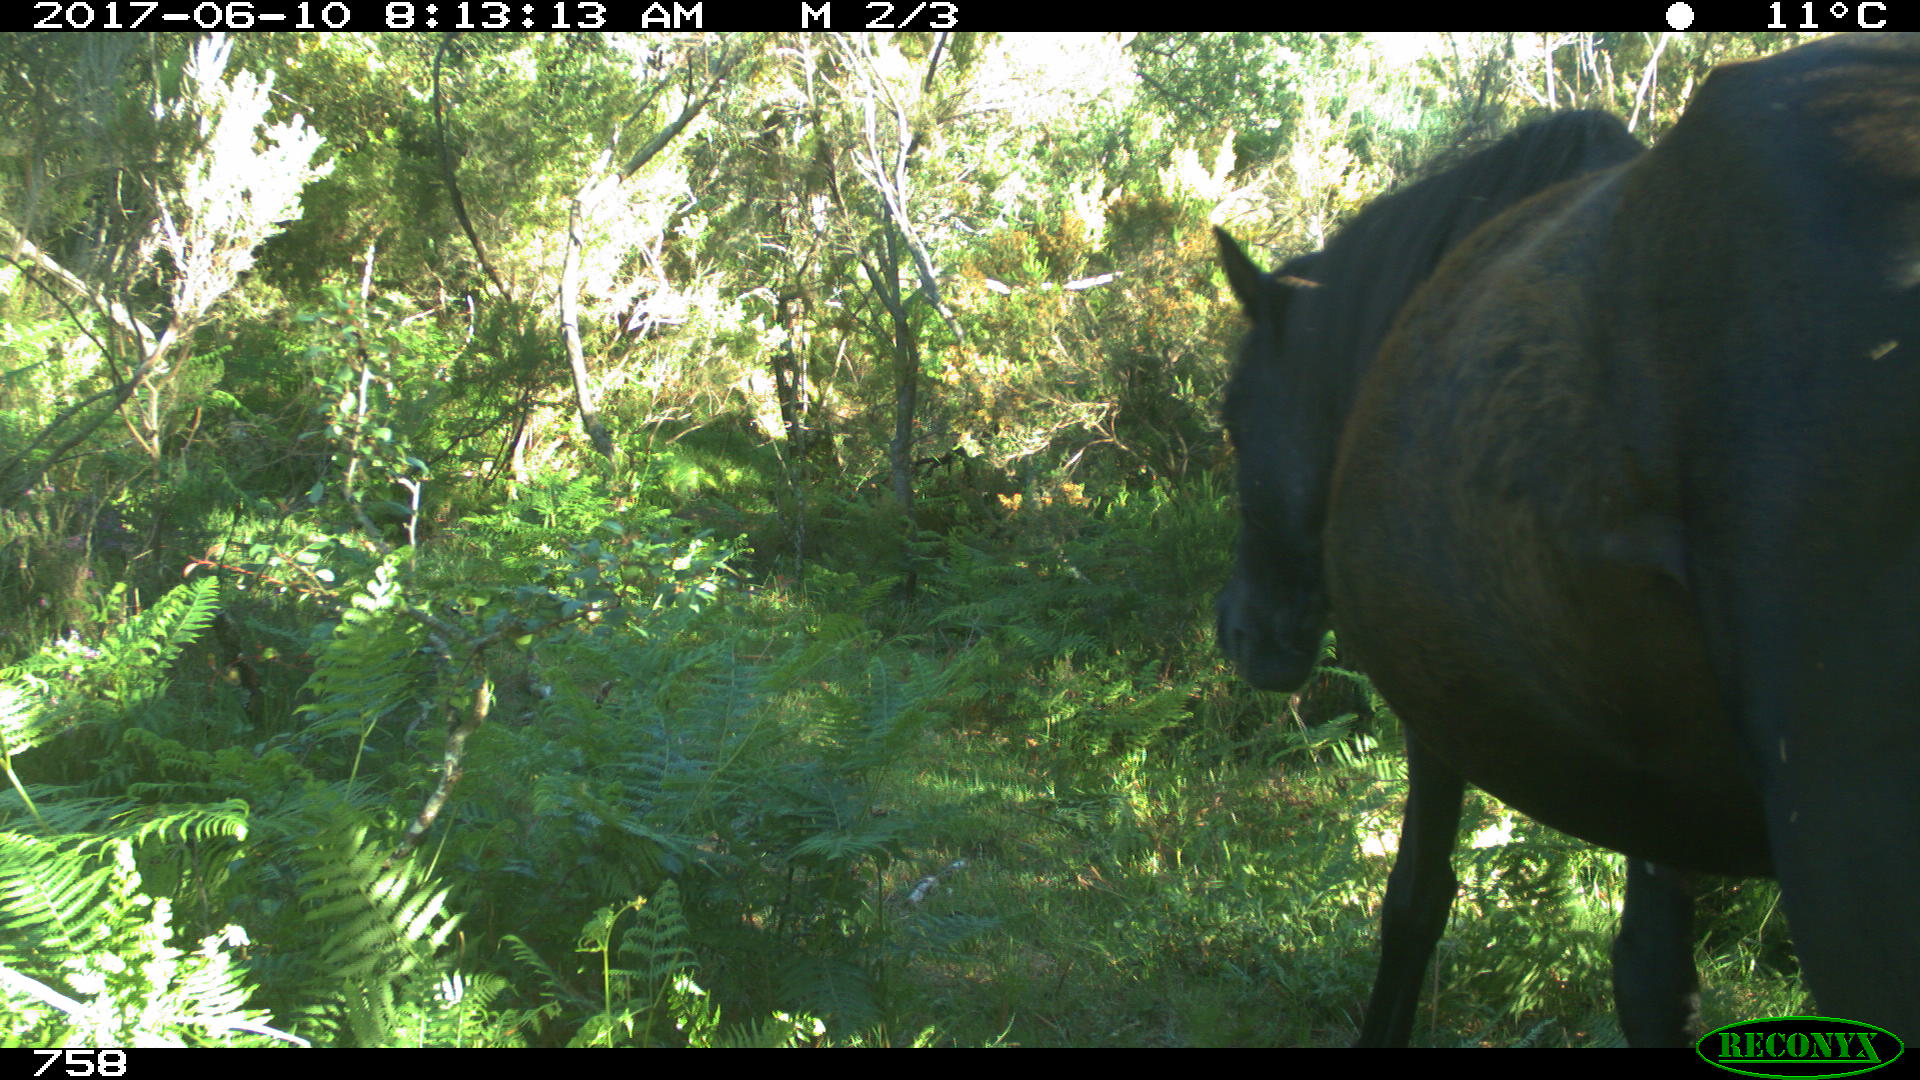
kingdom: Animalia
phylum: Chordata
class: Mammalia
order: Perissodactyla
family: Equidae
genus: Equus
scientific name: Equus caballus
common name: Horse
